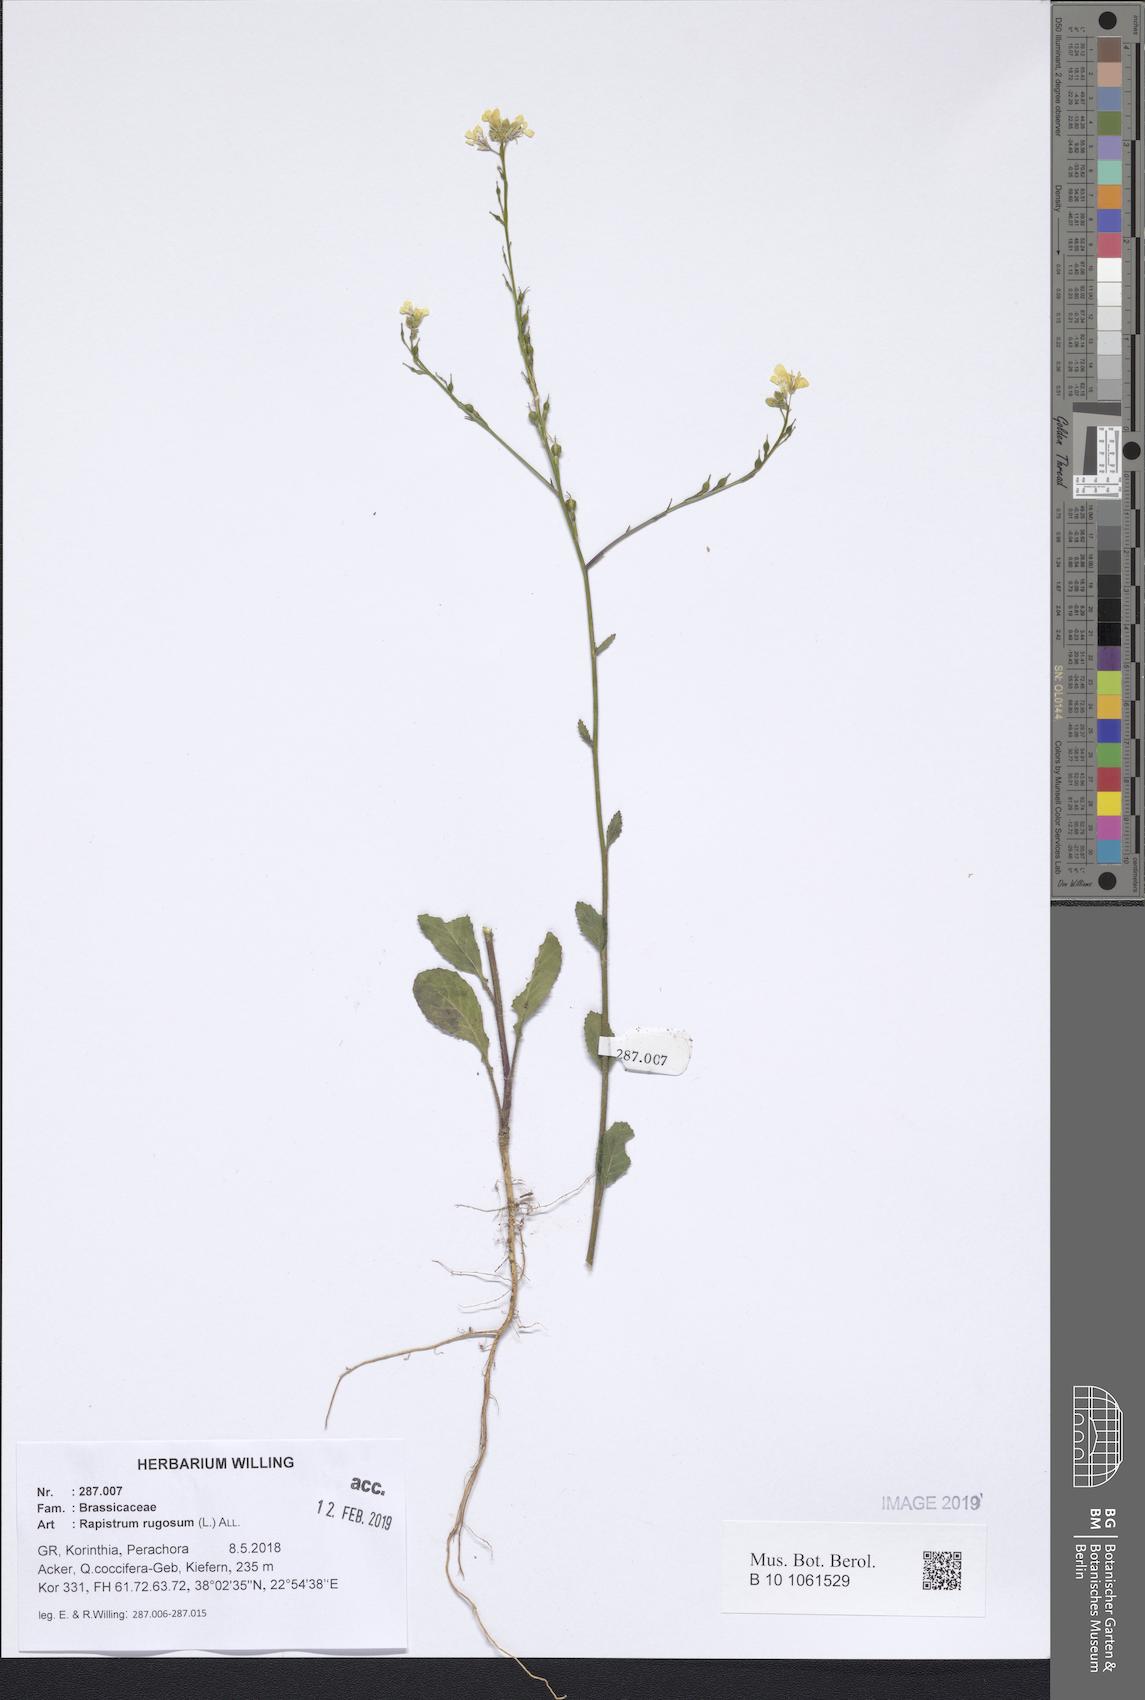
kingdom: Plantae
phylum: Tracheophyta
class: Magnoliopsida
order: Brassicales
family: Brassicaceae
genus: Rapistrum
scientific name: Rapistrum rugosum
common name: Annual bastardcabbage
